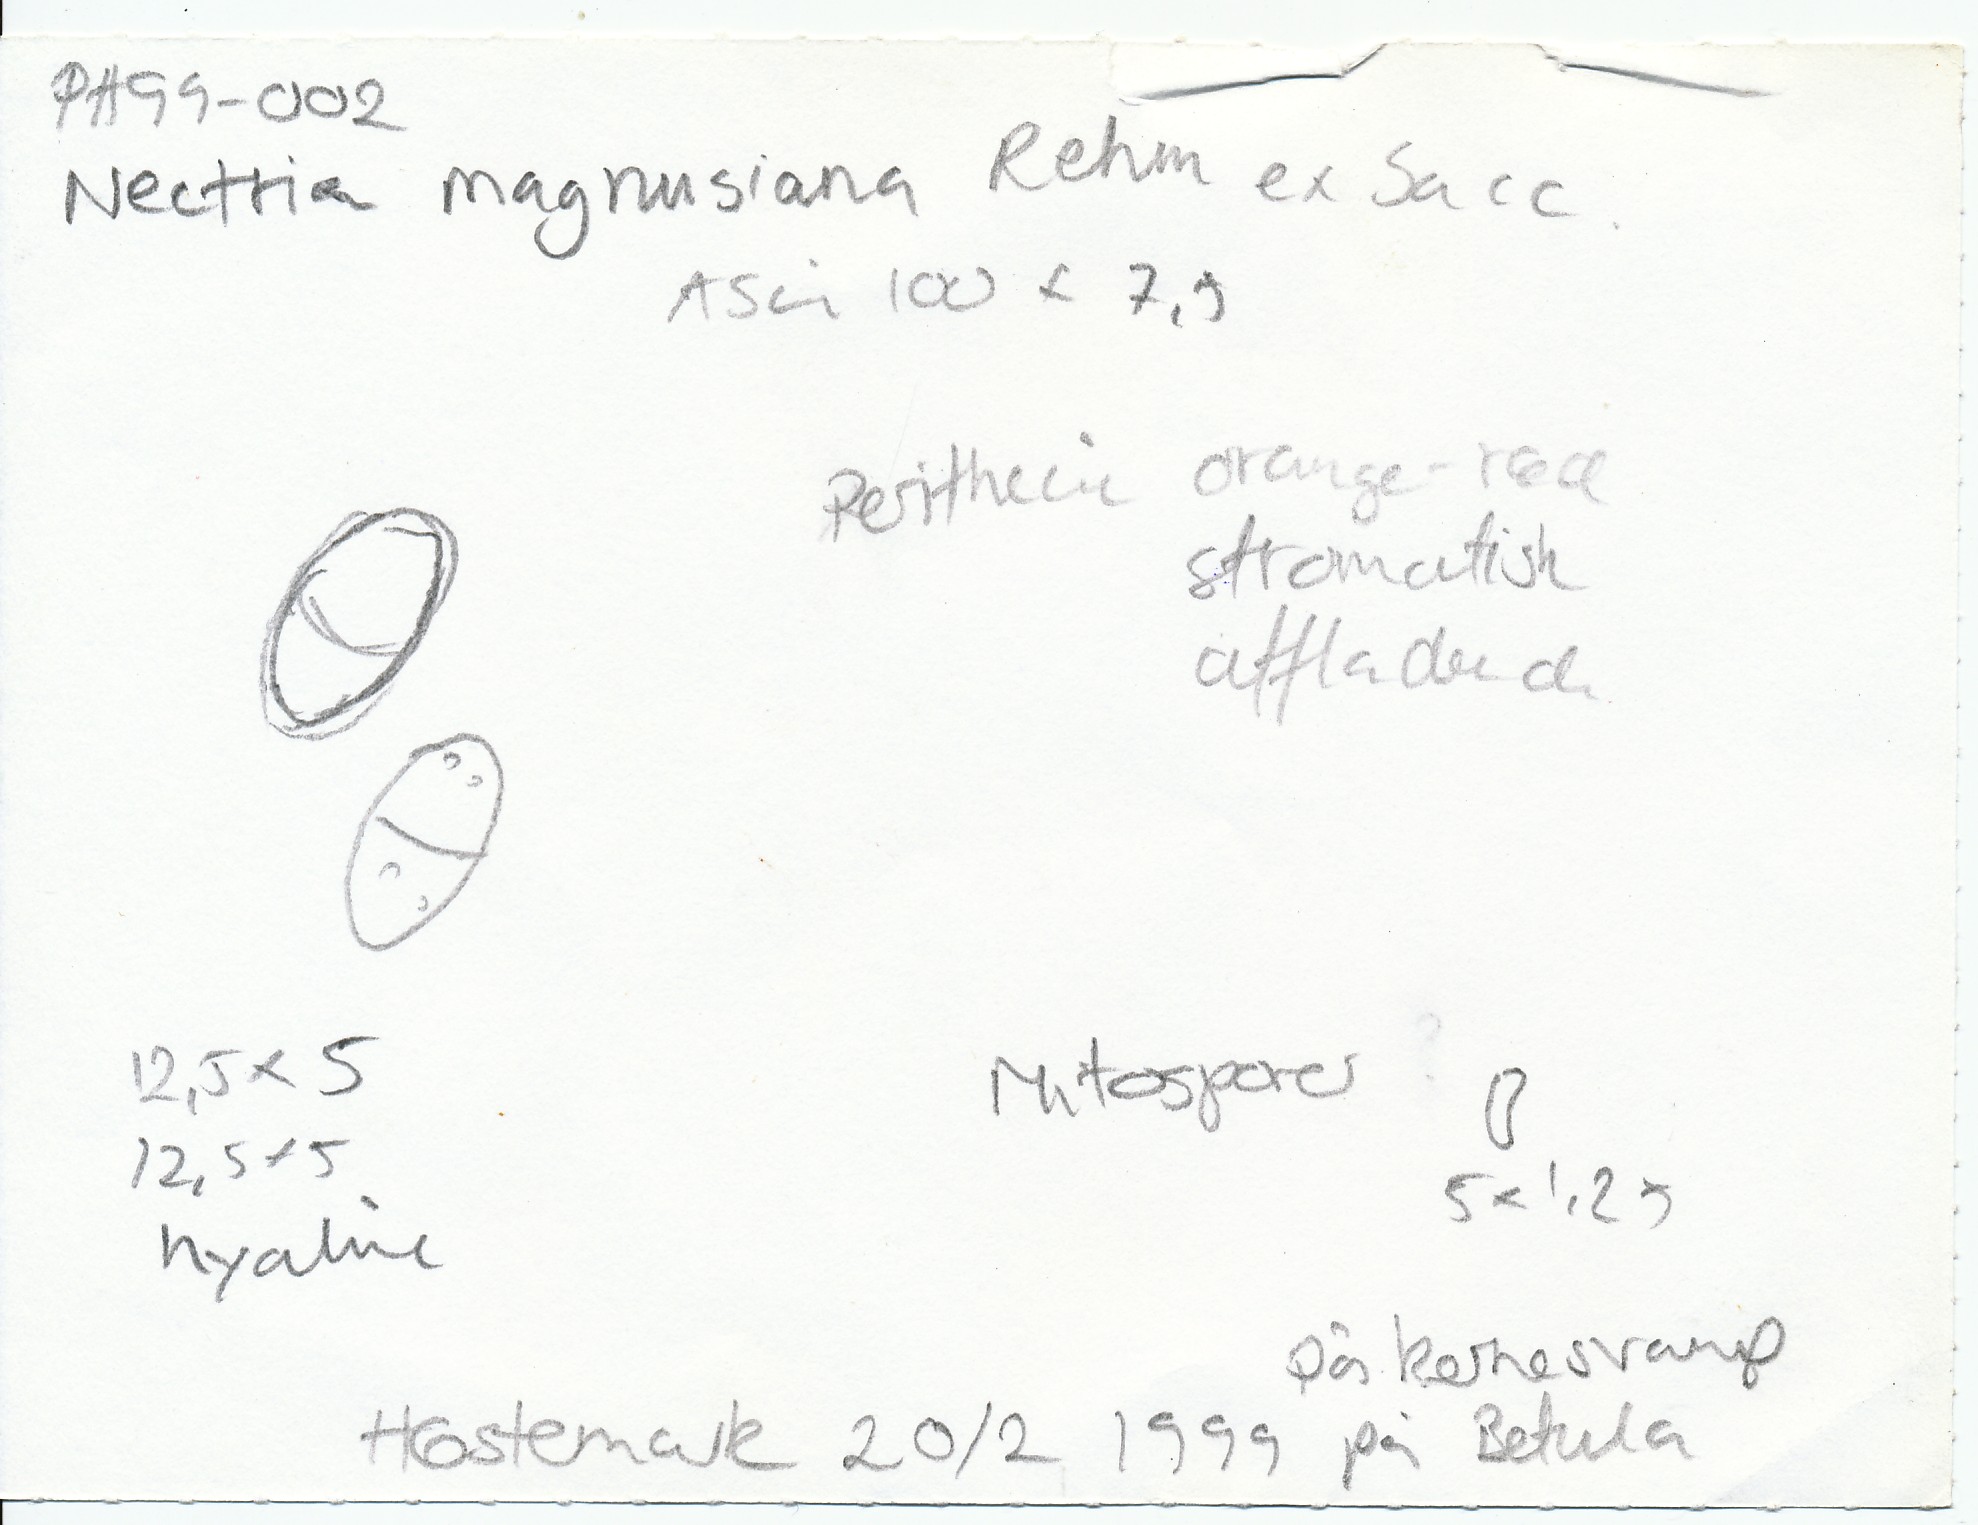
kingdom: Fungi
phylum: Ascomycota
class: Sordariomycetes
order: Hypocreales
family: Nectriaceae
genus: Dialonectria
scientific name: Dialonectria magnusiana
